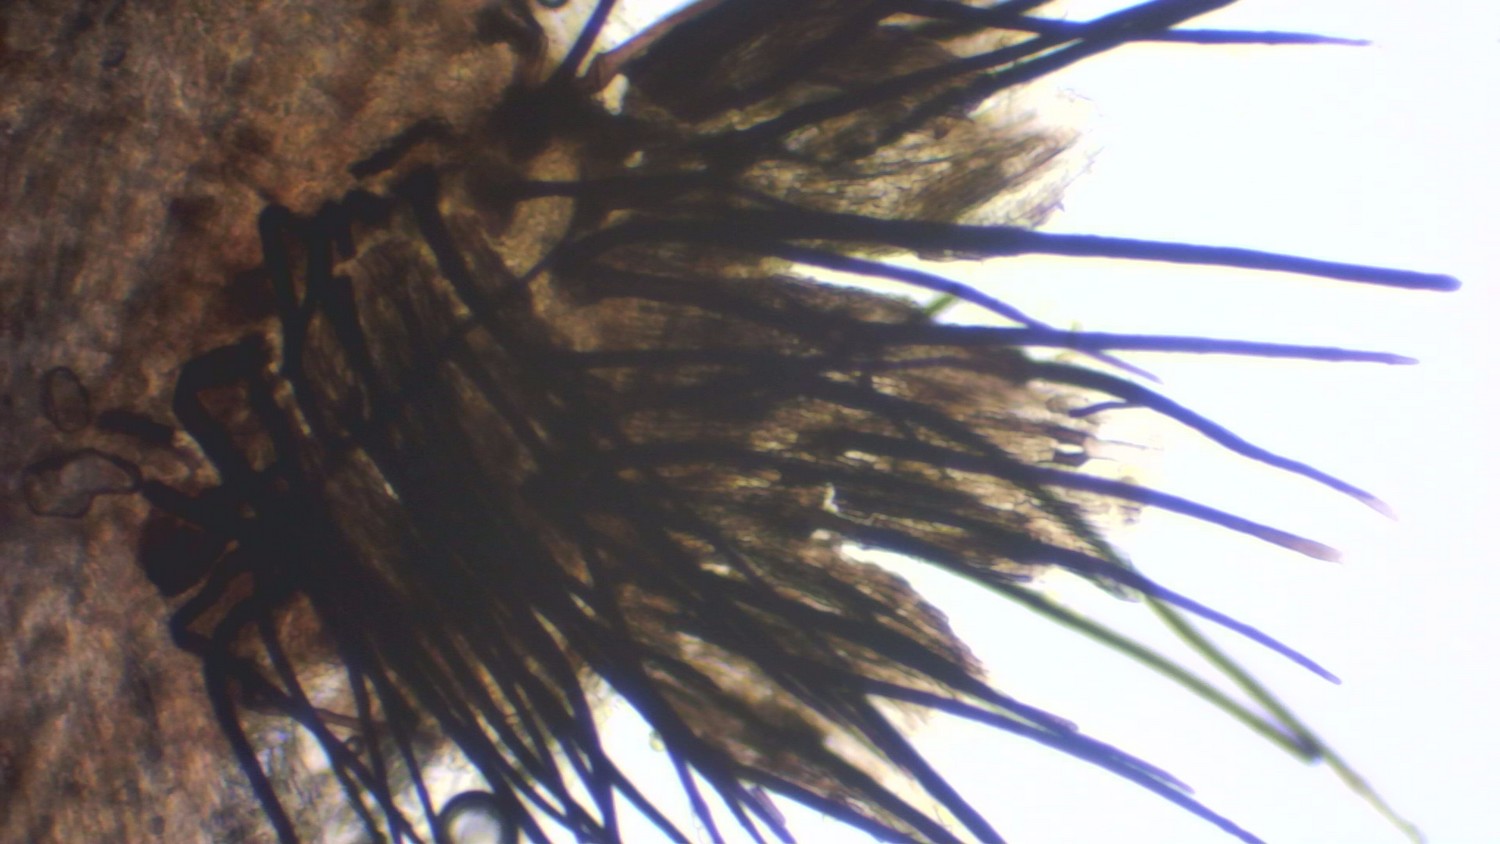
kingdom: Fungi
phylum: Ascomycota
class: Sordariomycetes
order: Phomatosporales
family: Phomatosporaceae
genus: Phomatospora
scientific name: Phomatospora dinemasporium
